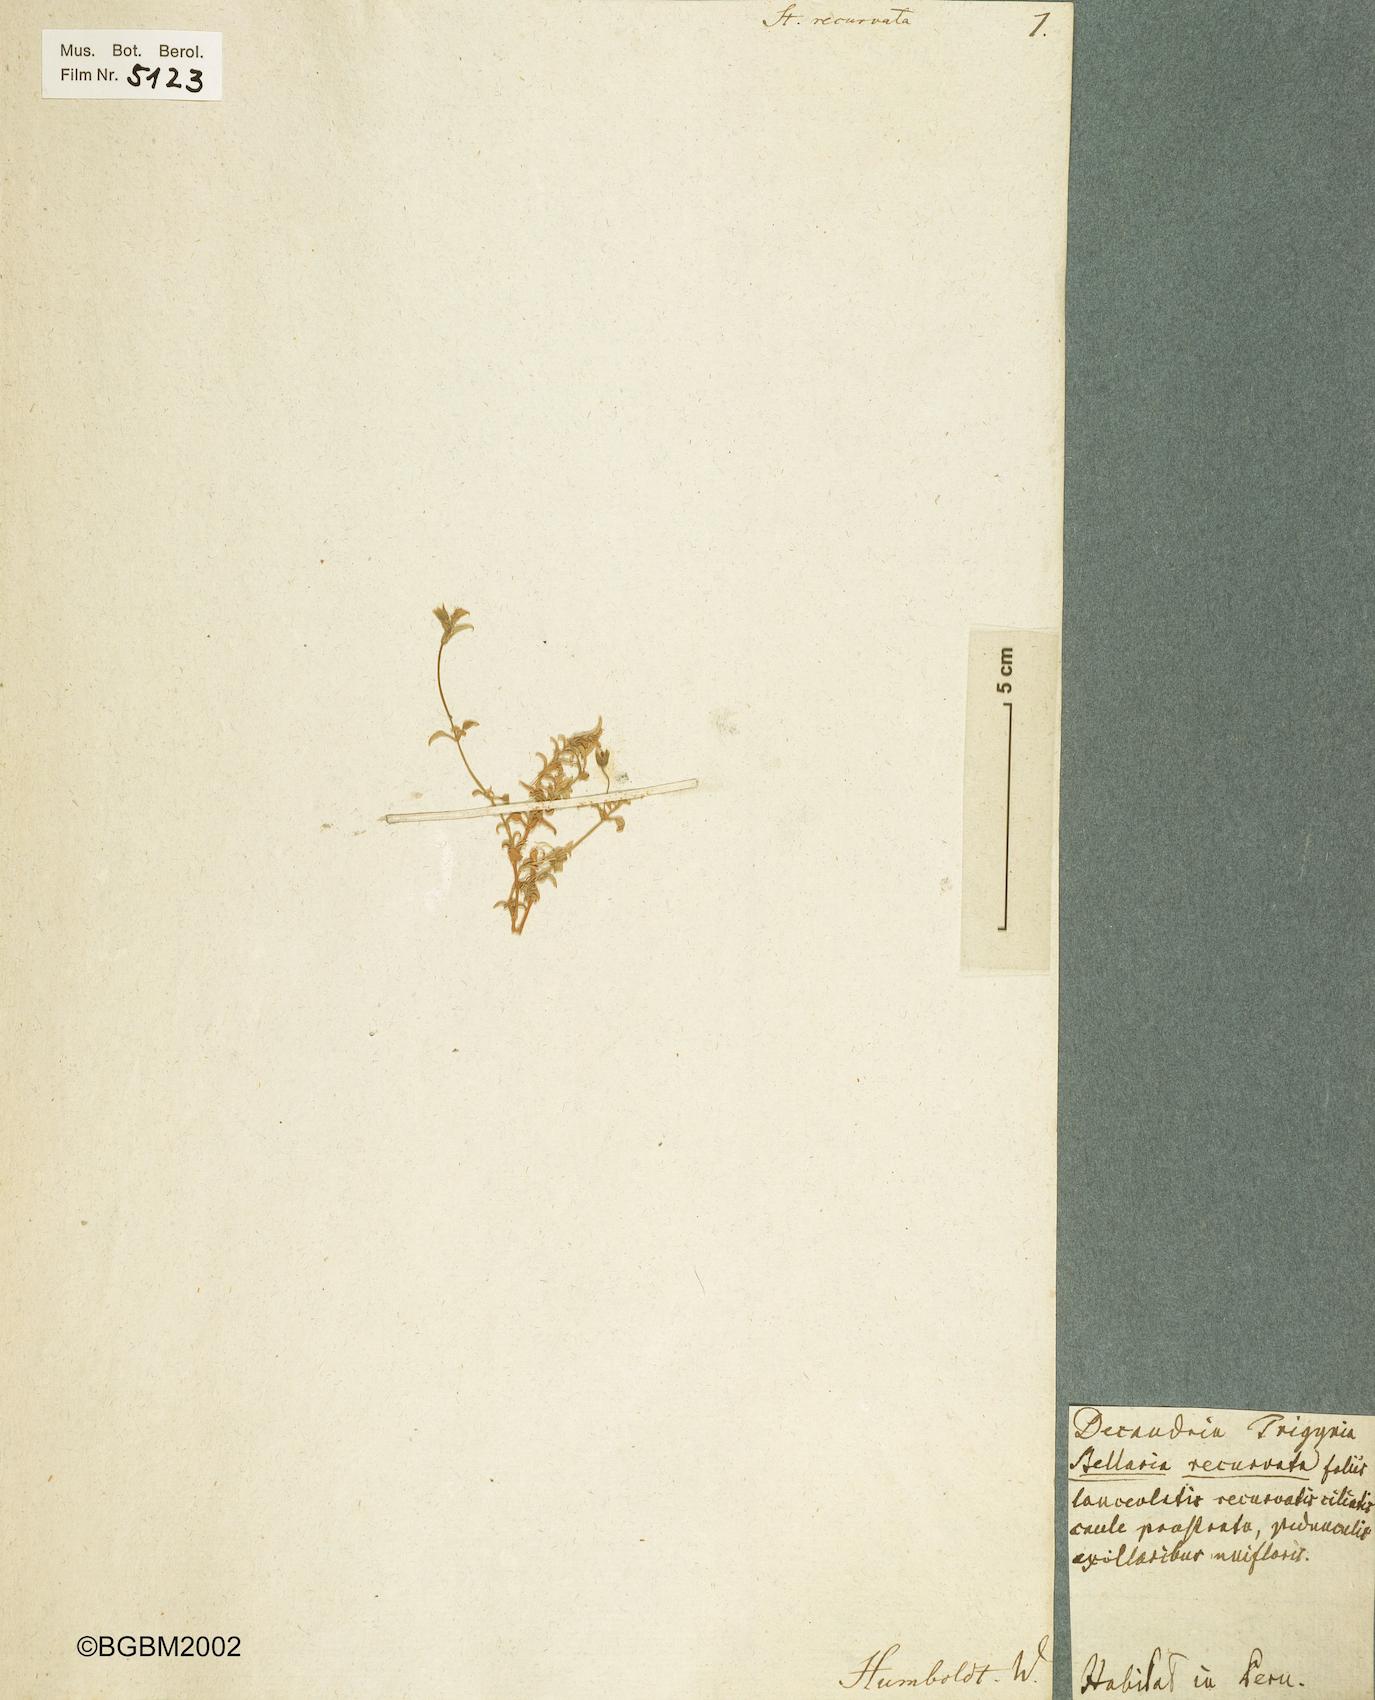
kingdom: Plantae
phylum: Tracheophyta
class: Magnoliopsida
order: Caryophyllales
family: Caryophyllaceae
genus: Stellaria
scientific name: Stellaria recurvata
